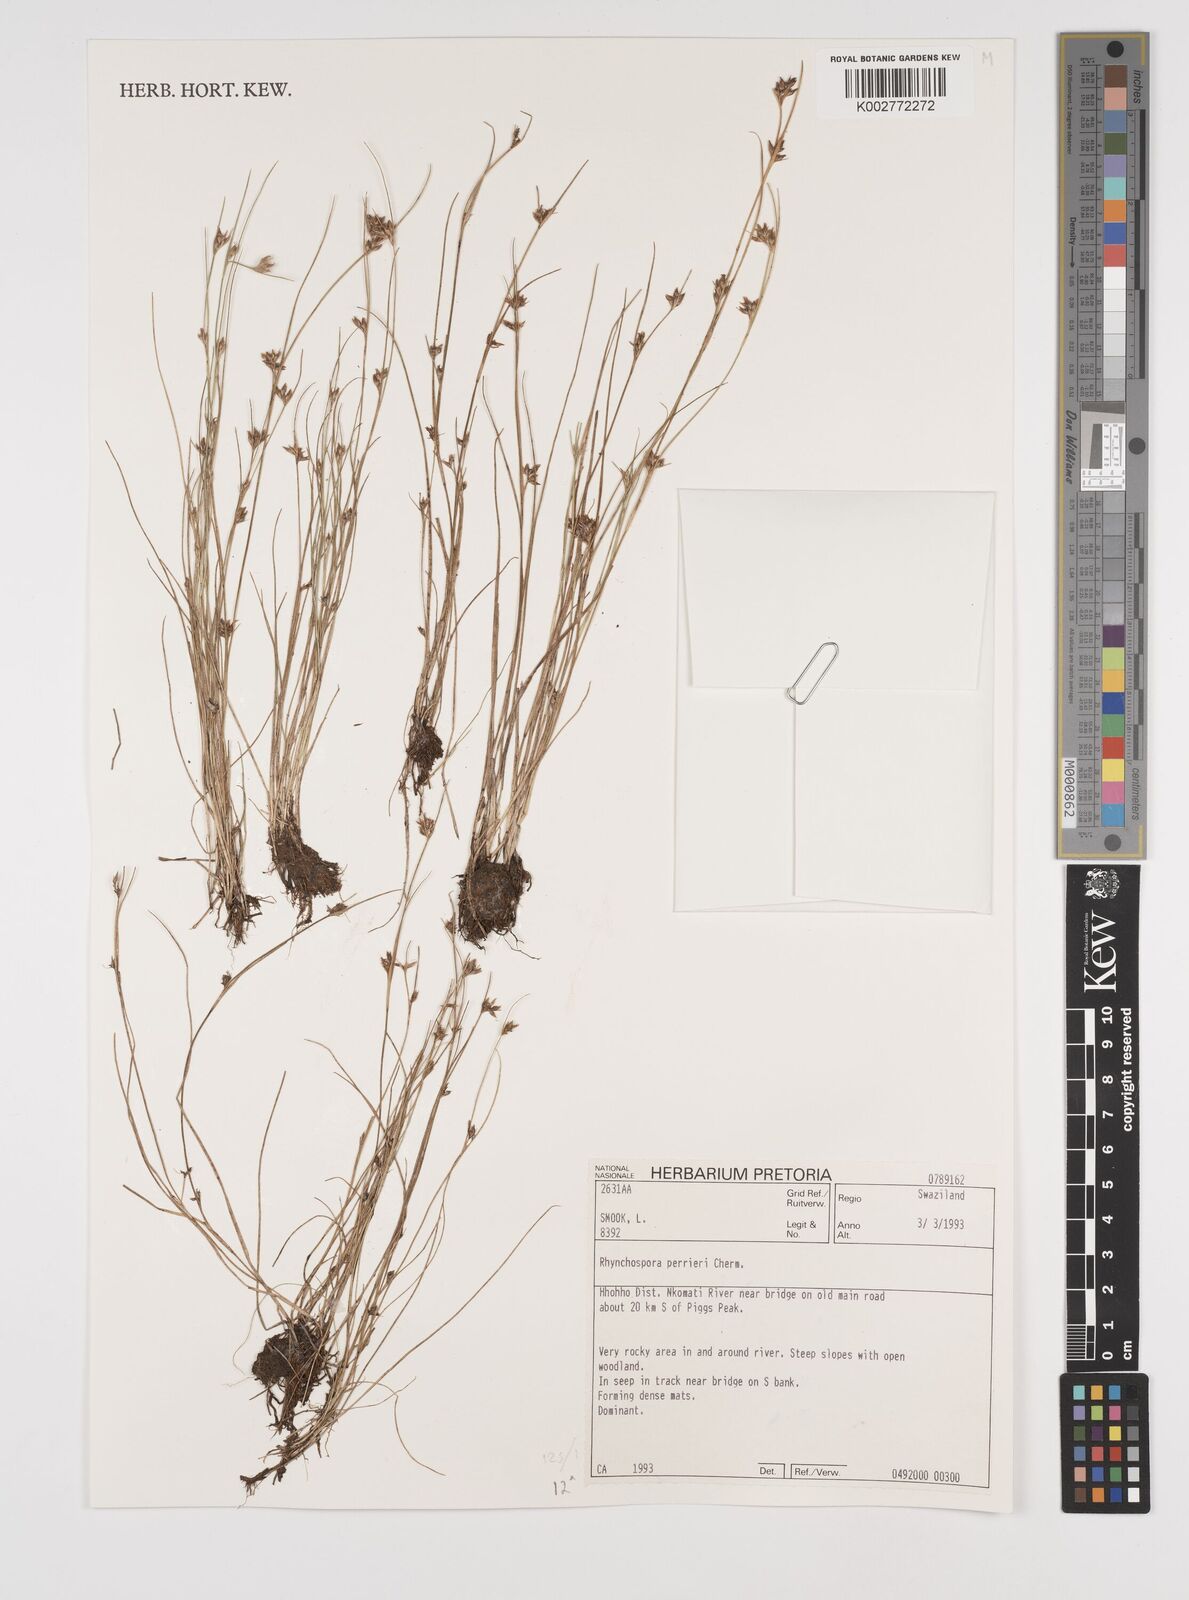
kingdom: Plantae
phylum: Tracheophyta
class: Liliopsida
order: Poales
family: Cyperaceae
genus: Rhynchospora
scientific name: Rhynchospora perrieri
